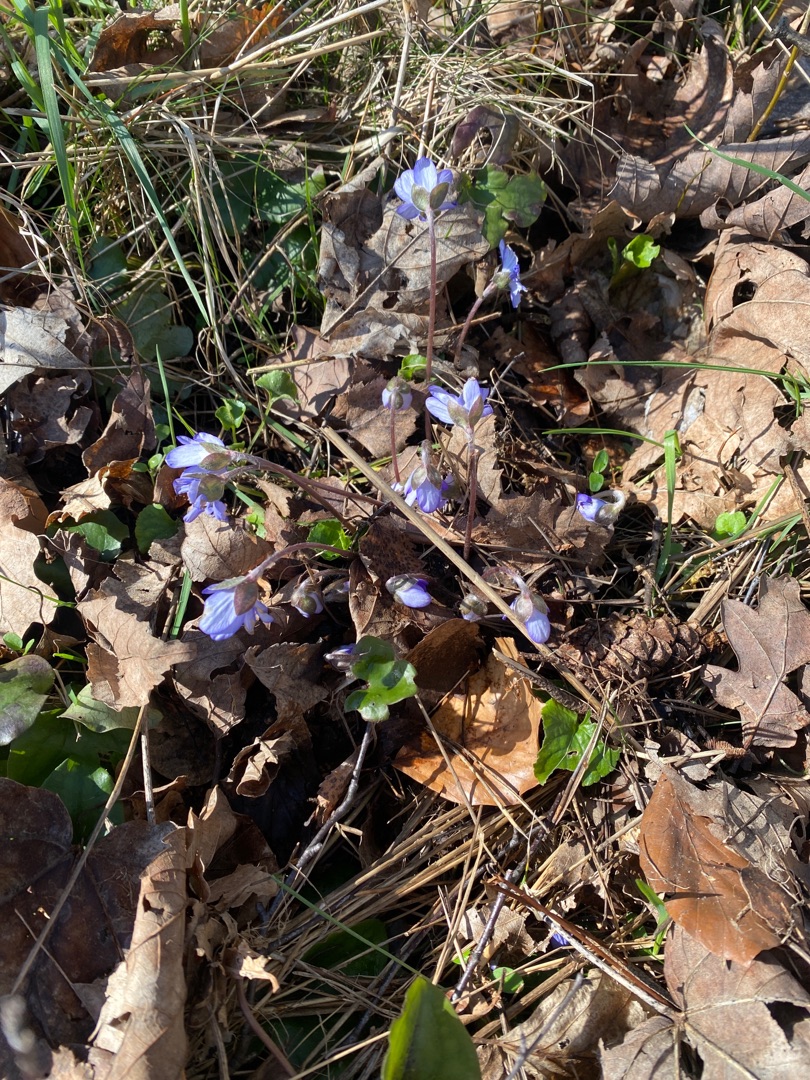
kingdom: Plantae
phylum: Tracheophyta
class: Magnoliopsida
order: Ranunculales
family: Ranunculaceae
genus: Hepatica
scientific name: Hepatica nobilis
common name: Blå anemone
